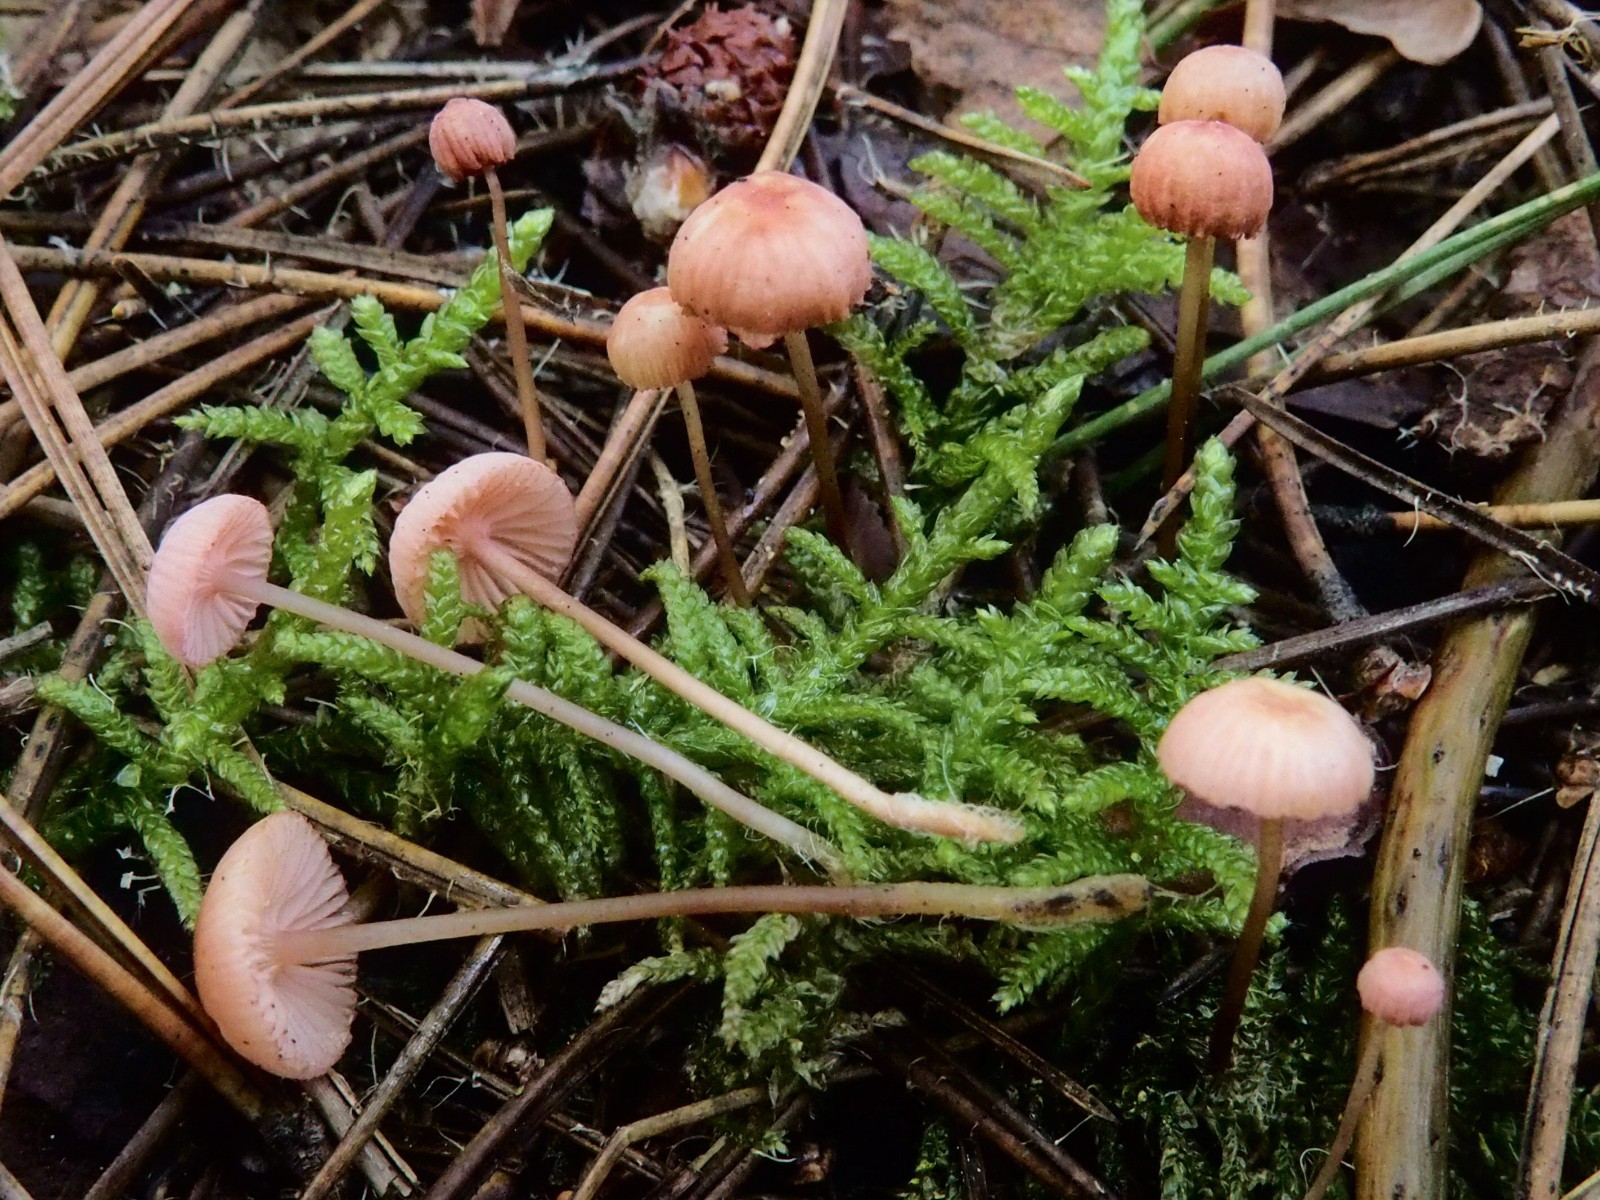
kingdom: Fungi
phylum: Basidiomycota
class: Agaricomycetes
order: Agaricales
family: Mycenaceae
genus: Mycena
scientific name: Mycena rosella
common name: rosenrød huesvamp
